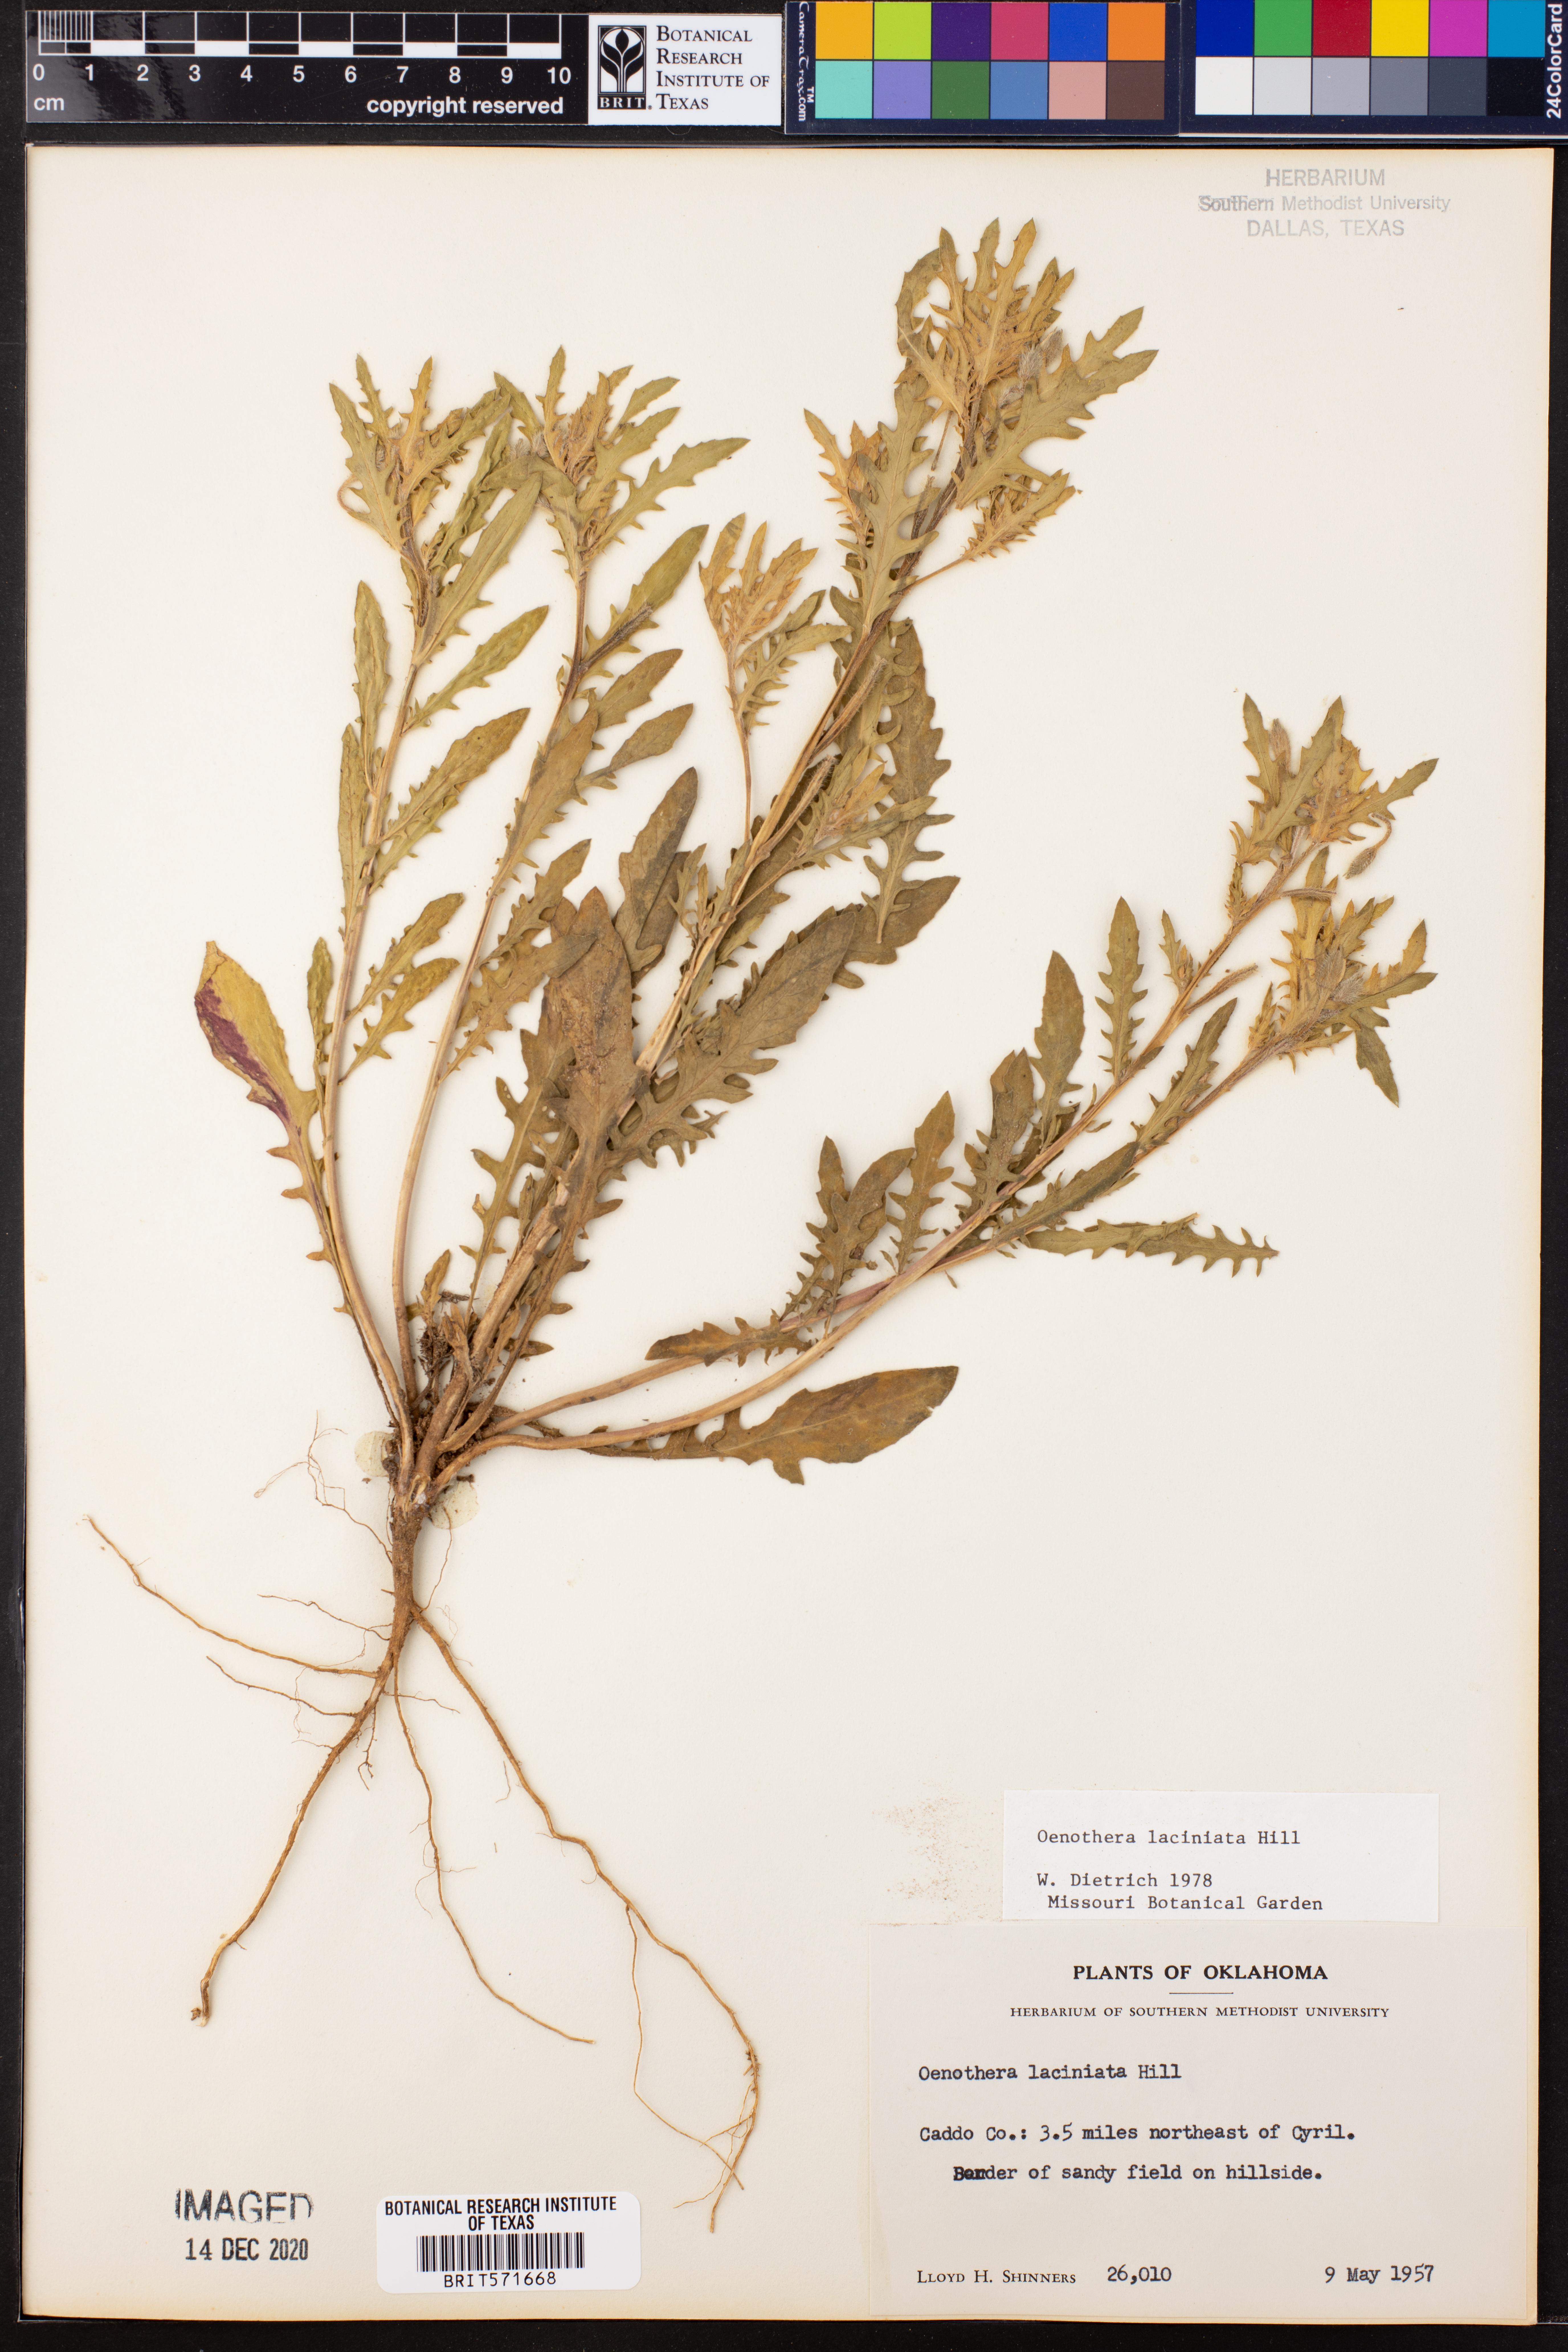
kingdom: Plantae
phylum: Tracheophyta
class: Magnoliopsida
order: Myrtales
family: Onagraceae
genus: Oenothera
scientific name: Oenothera laciniata
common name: Cut-leaved evening-primrose
